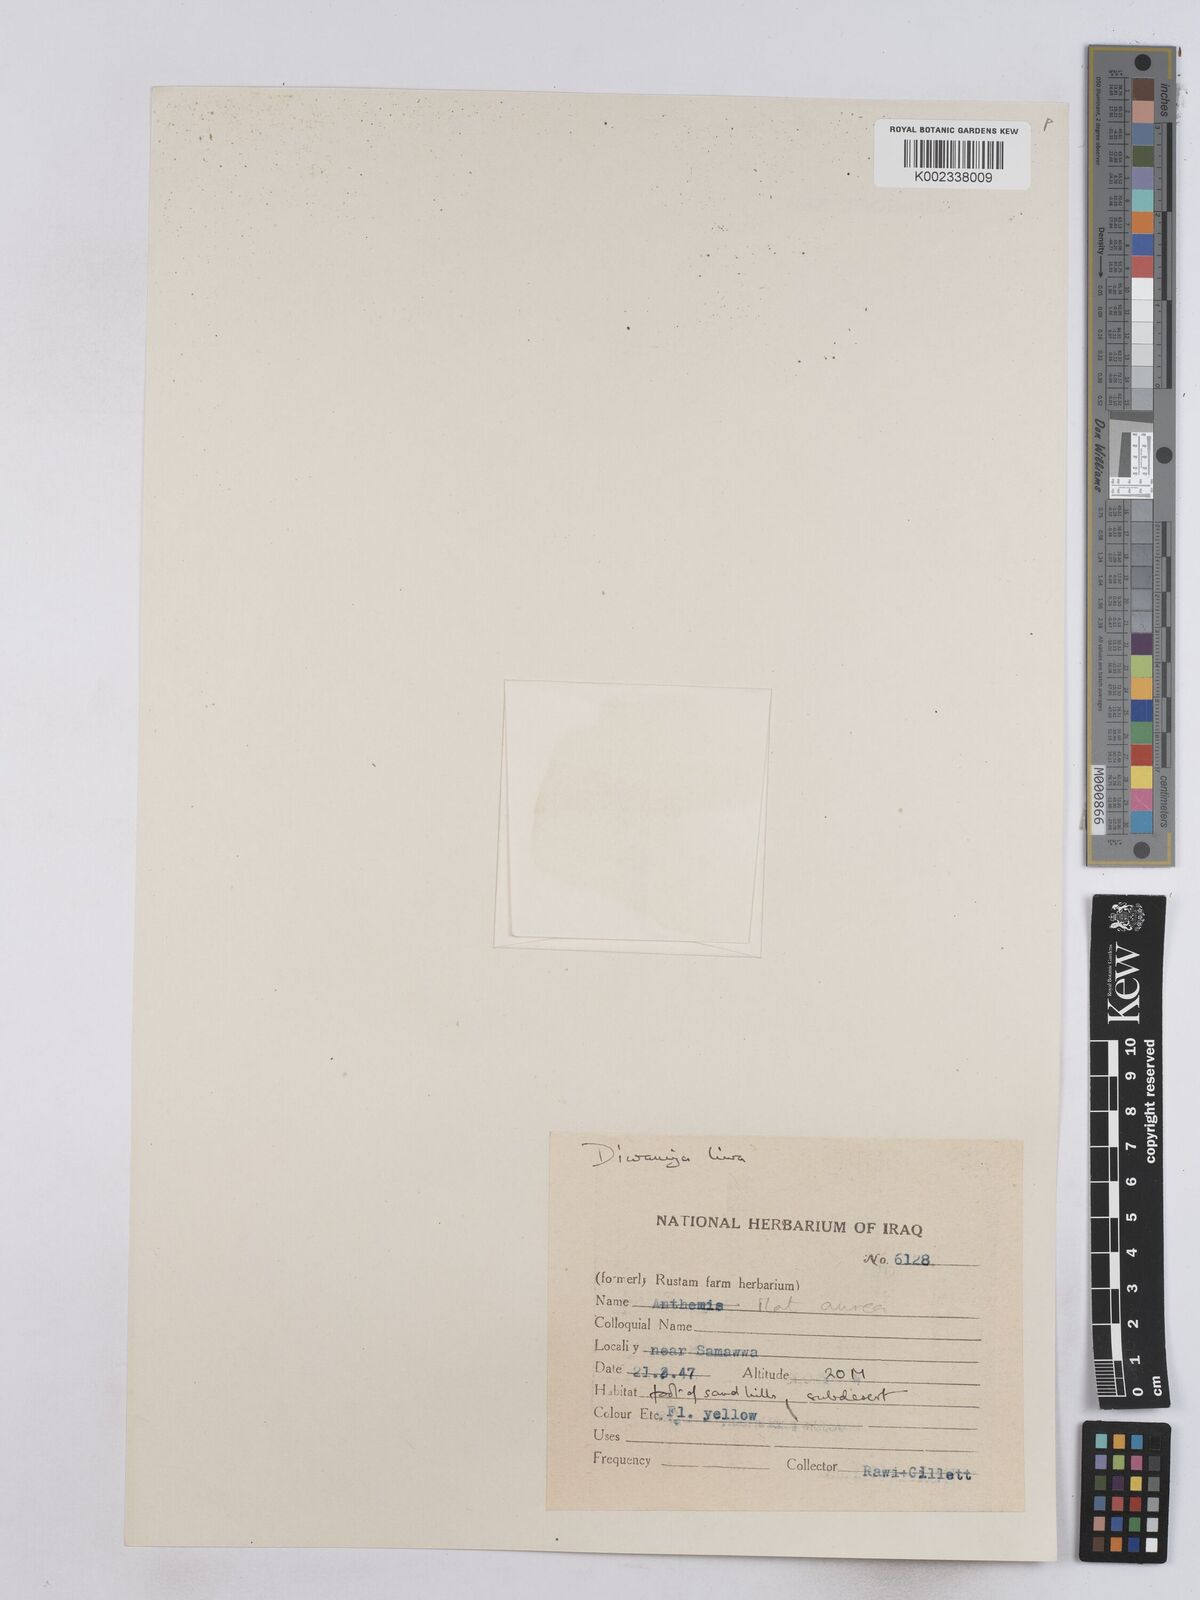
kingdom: Plantae
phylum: Tracheophyta
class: Magnoliopsida
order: Asterales
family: Asteraceae
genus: Matricaria
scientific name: Matricaria aurea
